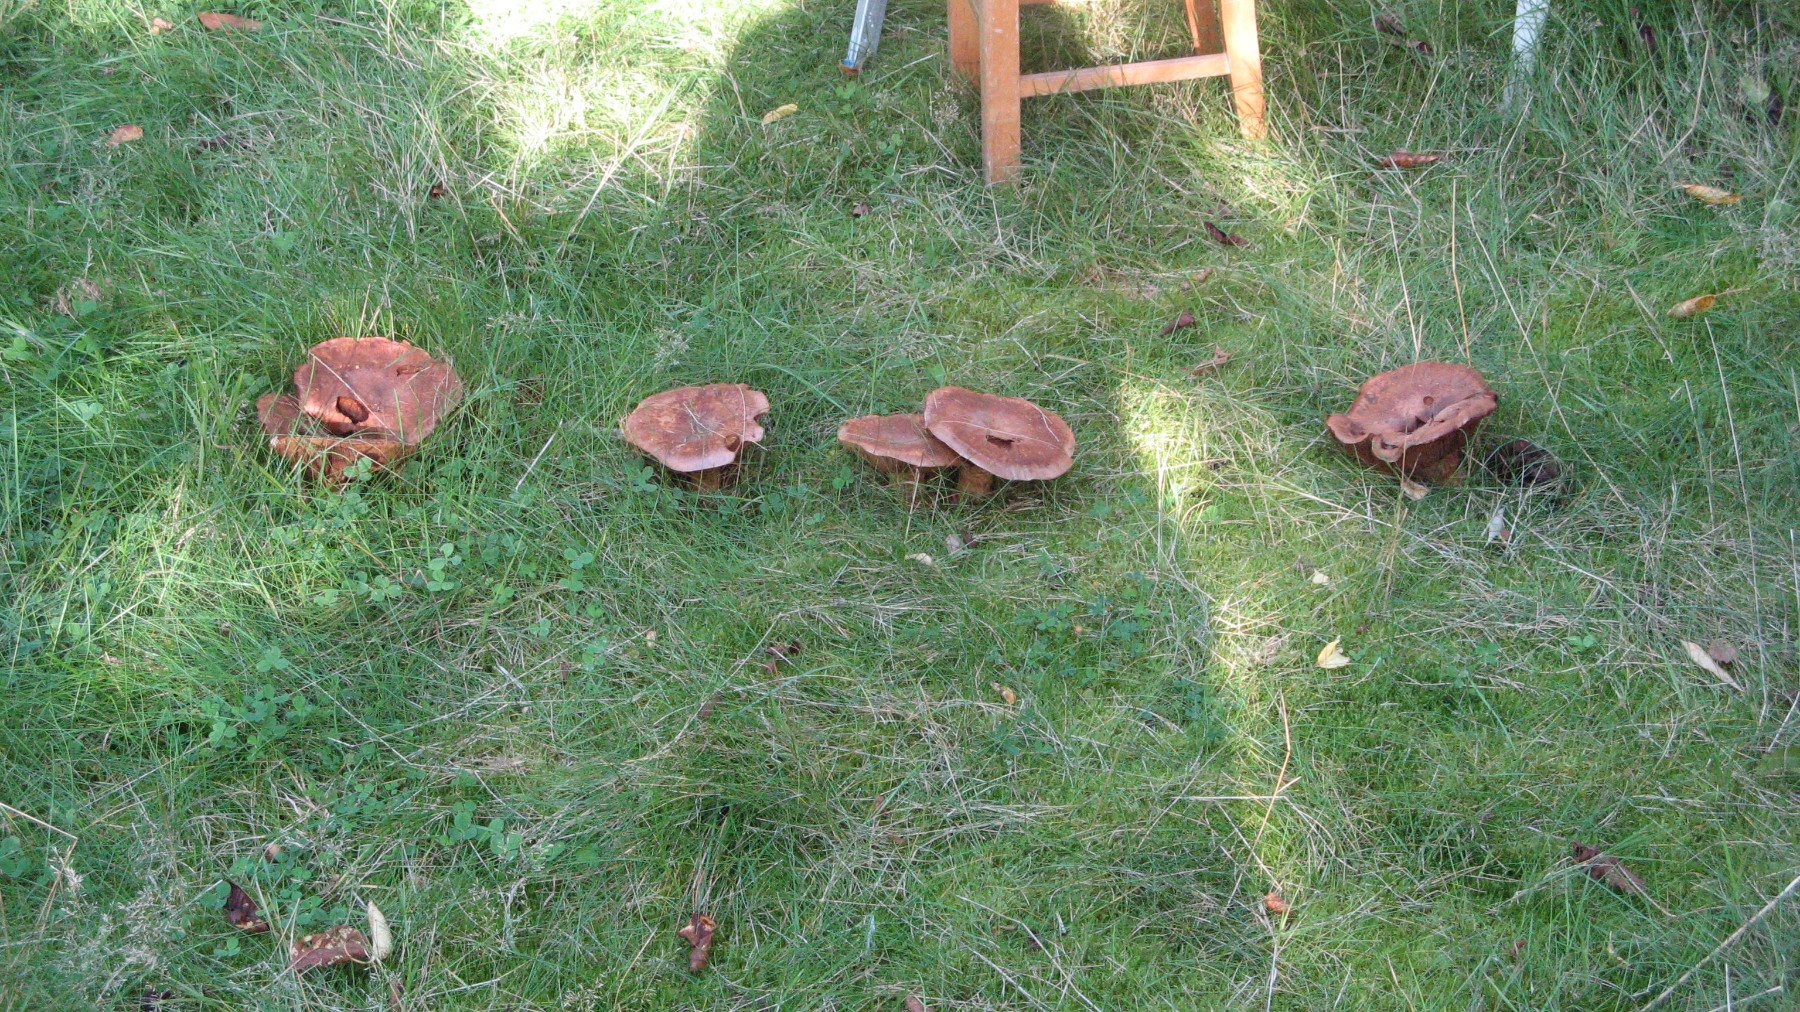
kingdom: Fungi
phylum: Basidiomycota
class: Agaricomycetes
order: Agaricales
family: Cortinariaceae
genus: Phlegmacium
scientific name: Phlegmacium balteatocumatile
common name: violettrådet slørhat
